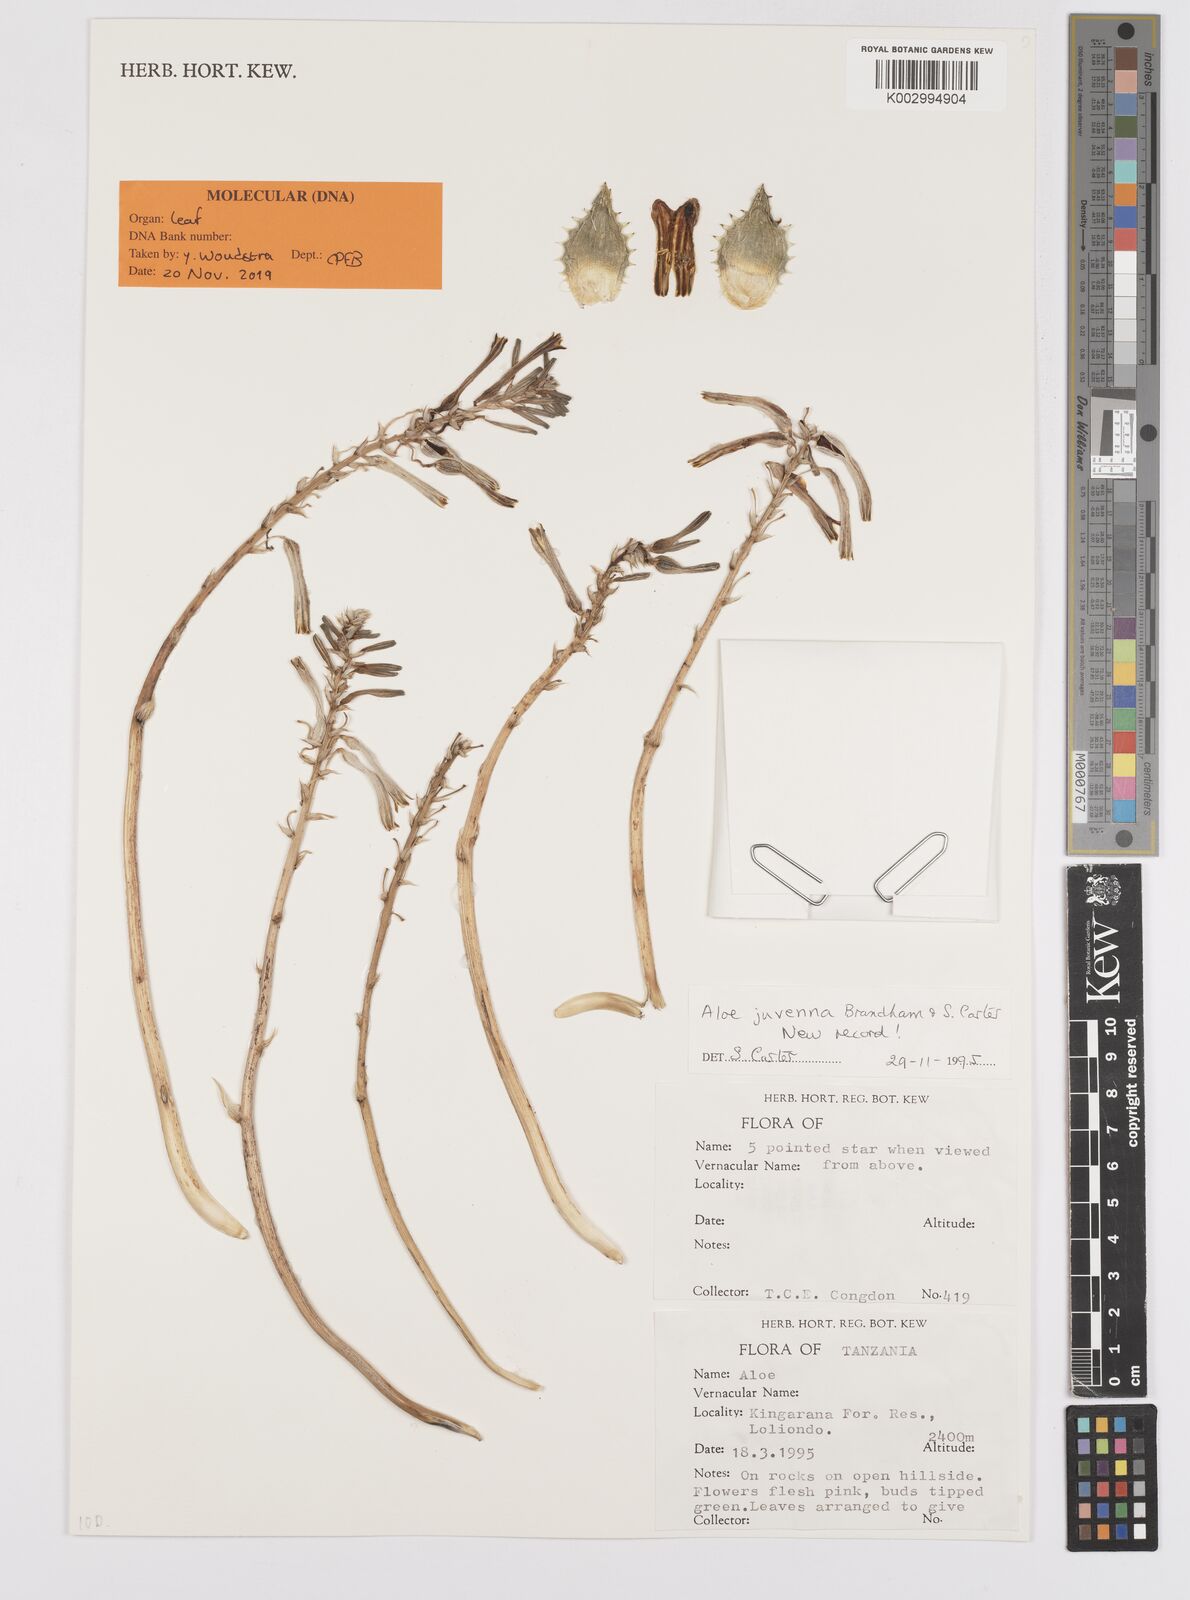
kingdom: Plantae
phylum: Tracheophyta
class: Liliopsida
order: Asparagales
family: Asphodelaceae
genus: Aloe
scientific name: Aloe juvenna
